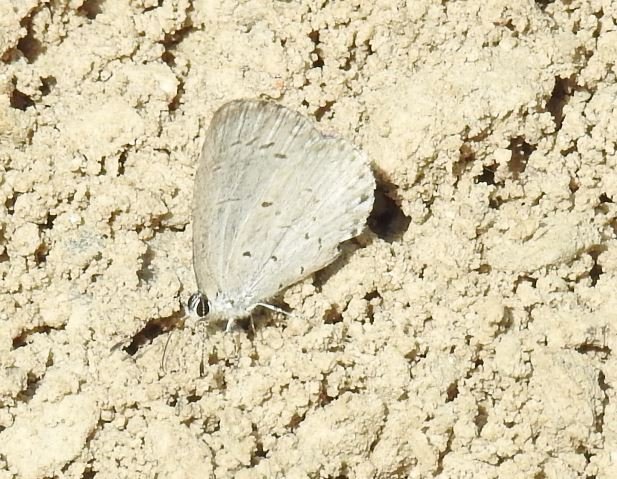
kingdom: Animalia
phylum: Arthropoda
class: Insecta
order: Lepidoptera
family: Lycaenidae
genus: Celastrina
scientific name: Celastrina
